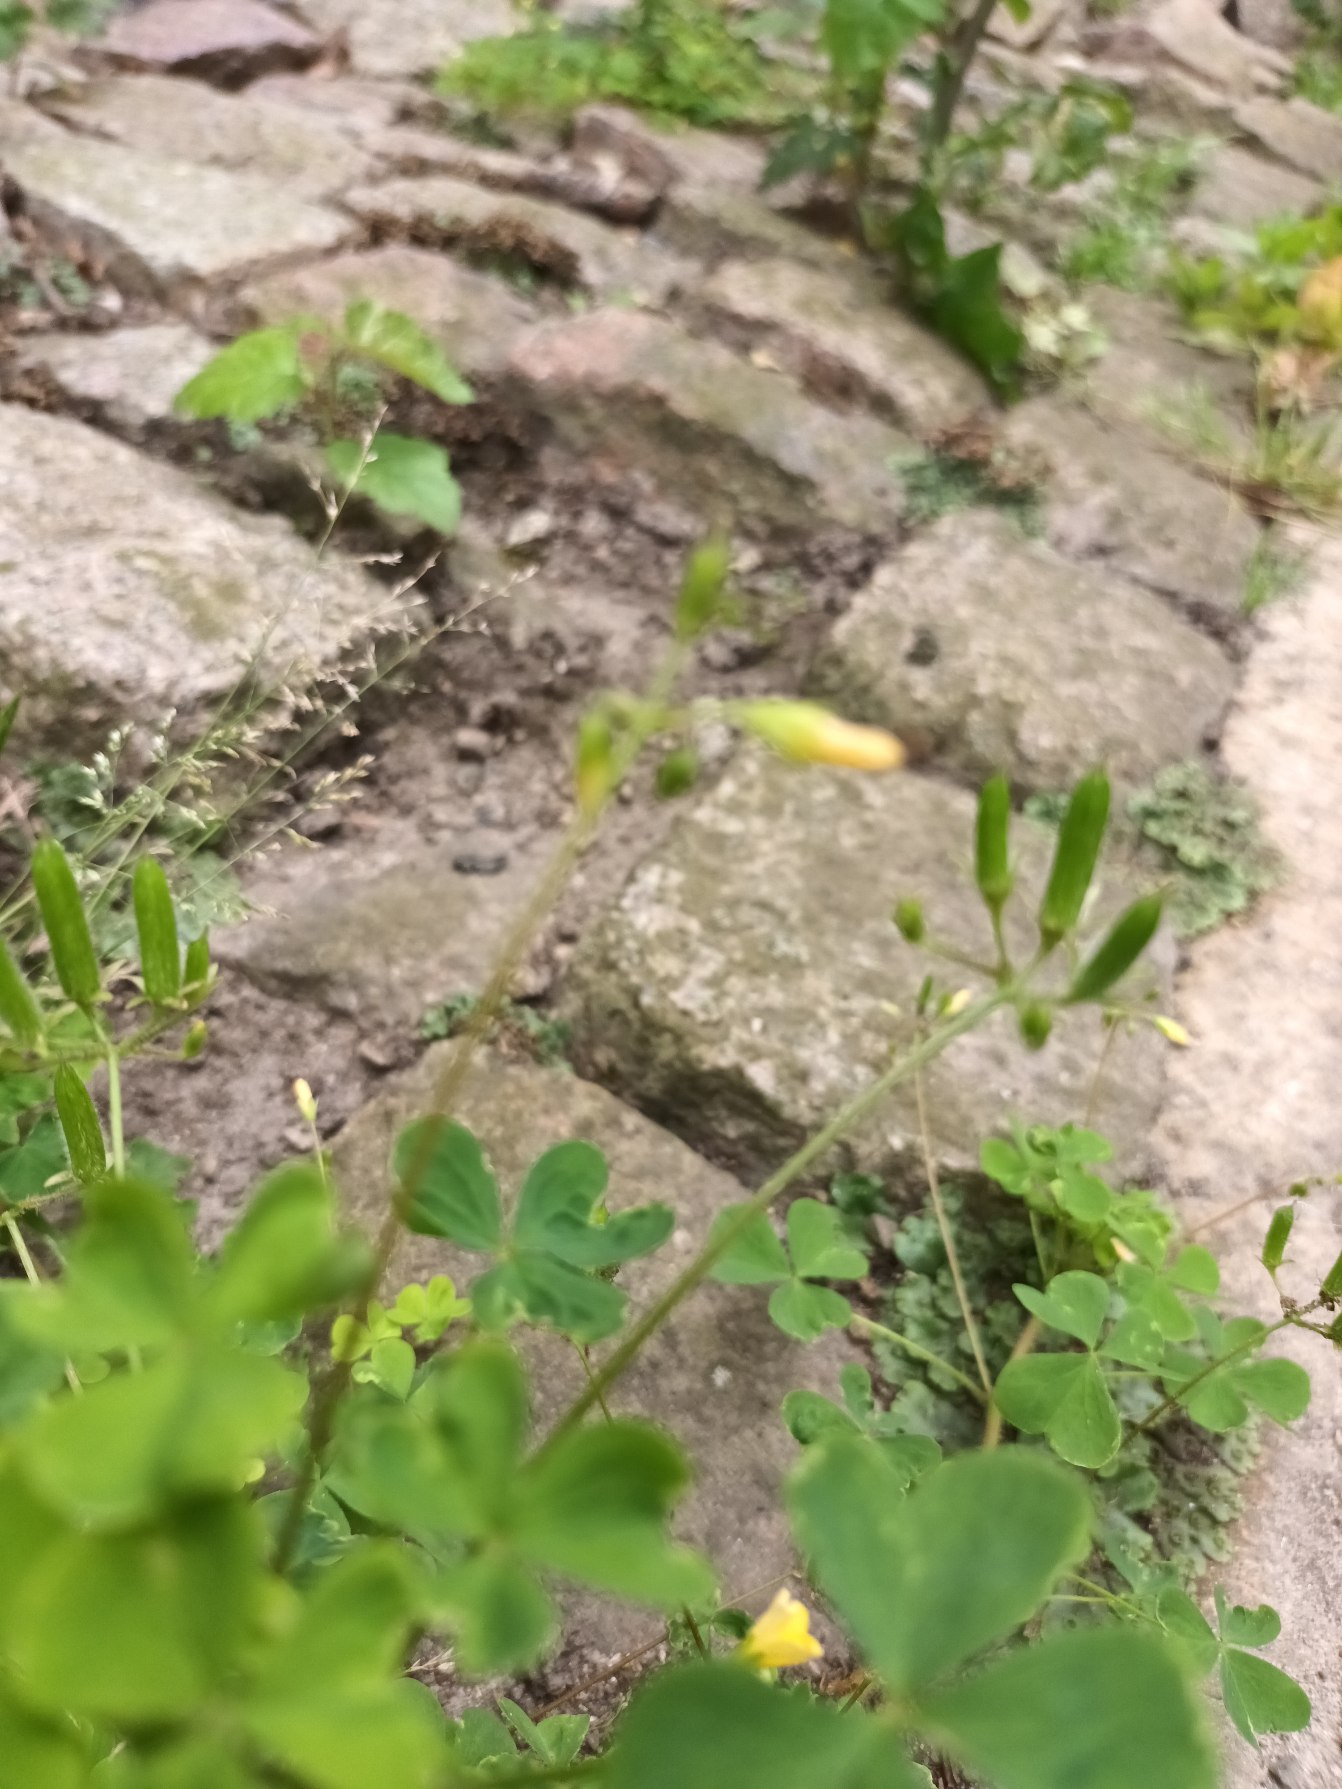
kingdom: Plantae
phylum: Tracheophyta
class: Magnoliopsida
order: Oxalidales
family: Oxalidaceae
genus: Oxalis
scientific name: Oxalis stricta
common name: Rank surkløver
